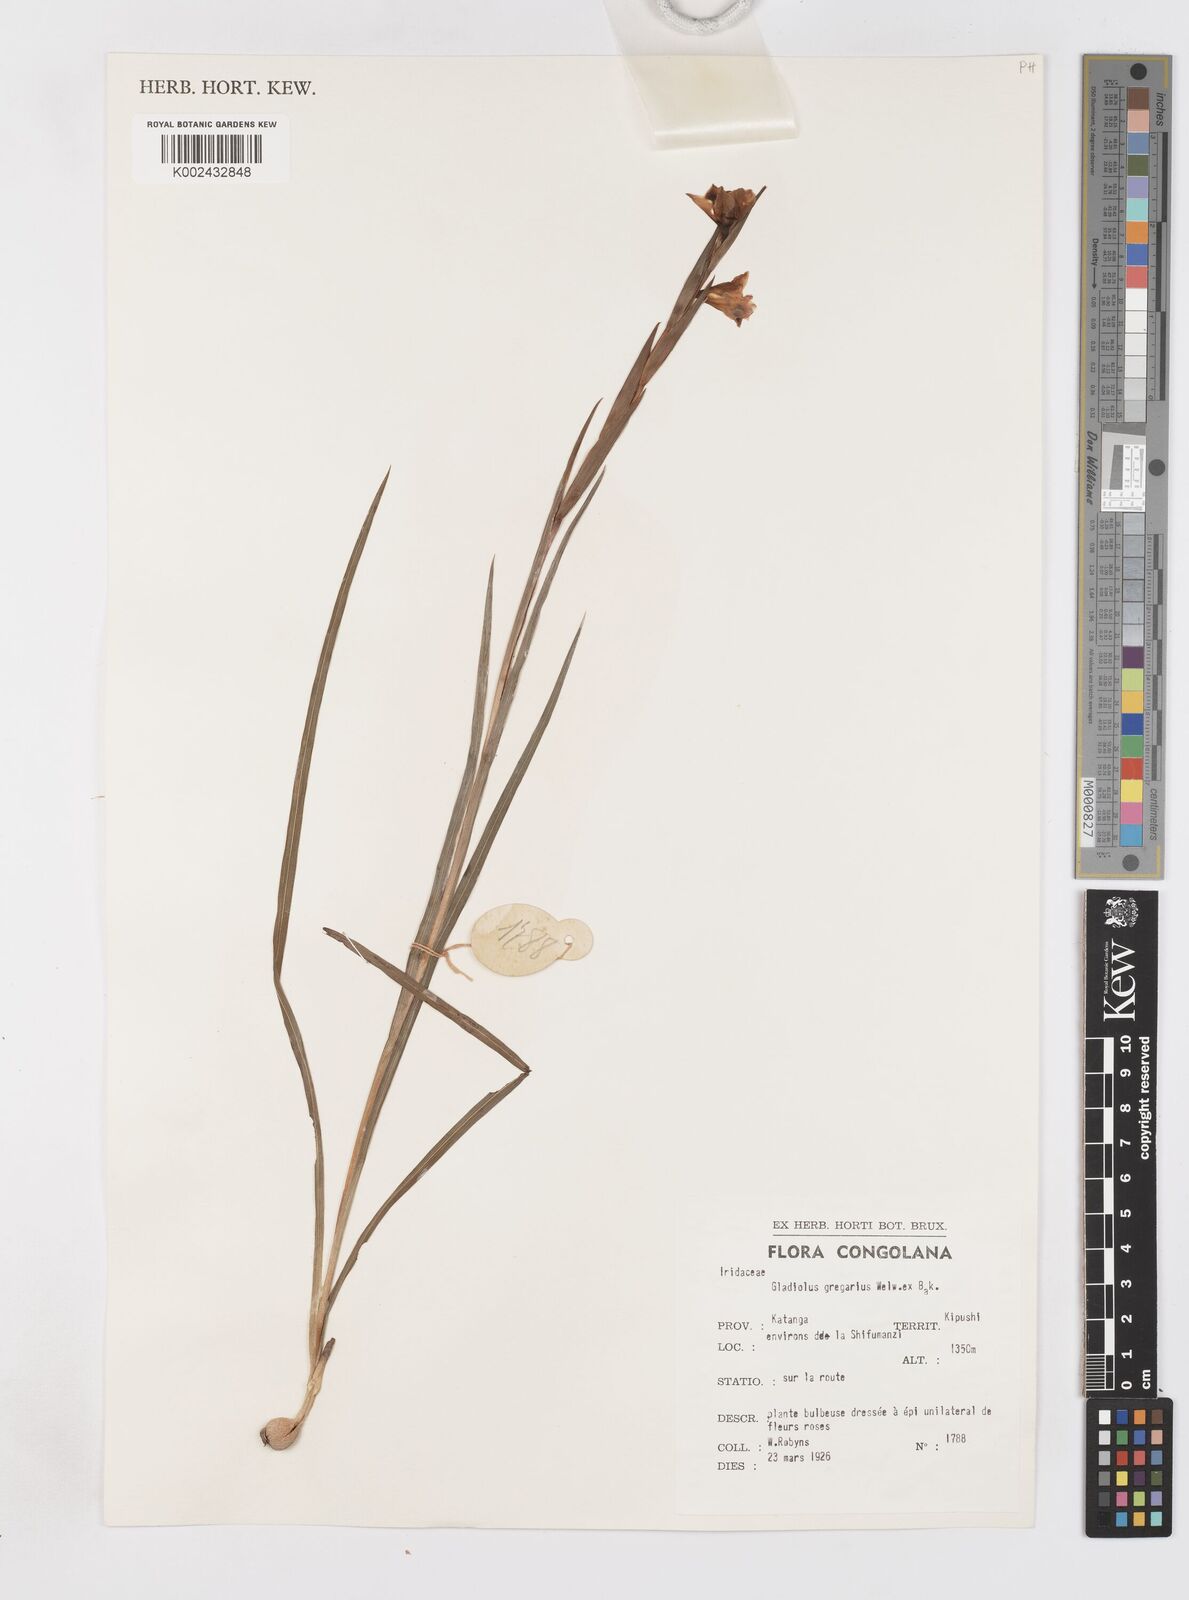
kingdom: Plantae
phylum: Tracheophyta
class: Liliopsida
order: Asparagales
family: Iridaceae
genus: Gladiolus
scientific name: Gladiolus gregarius
